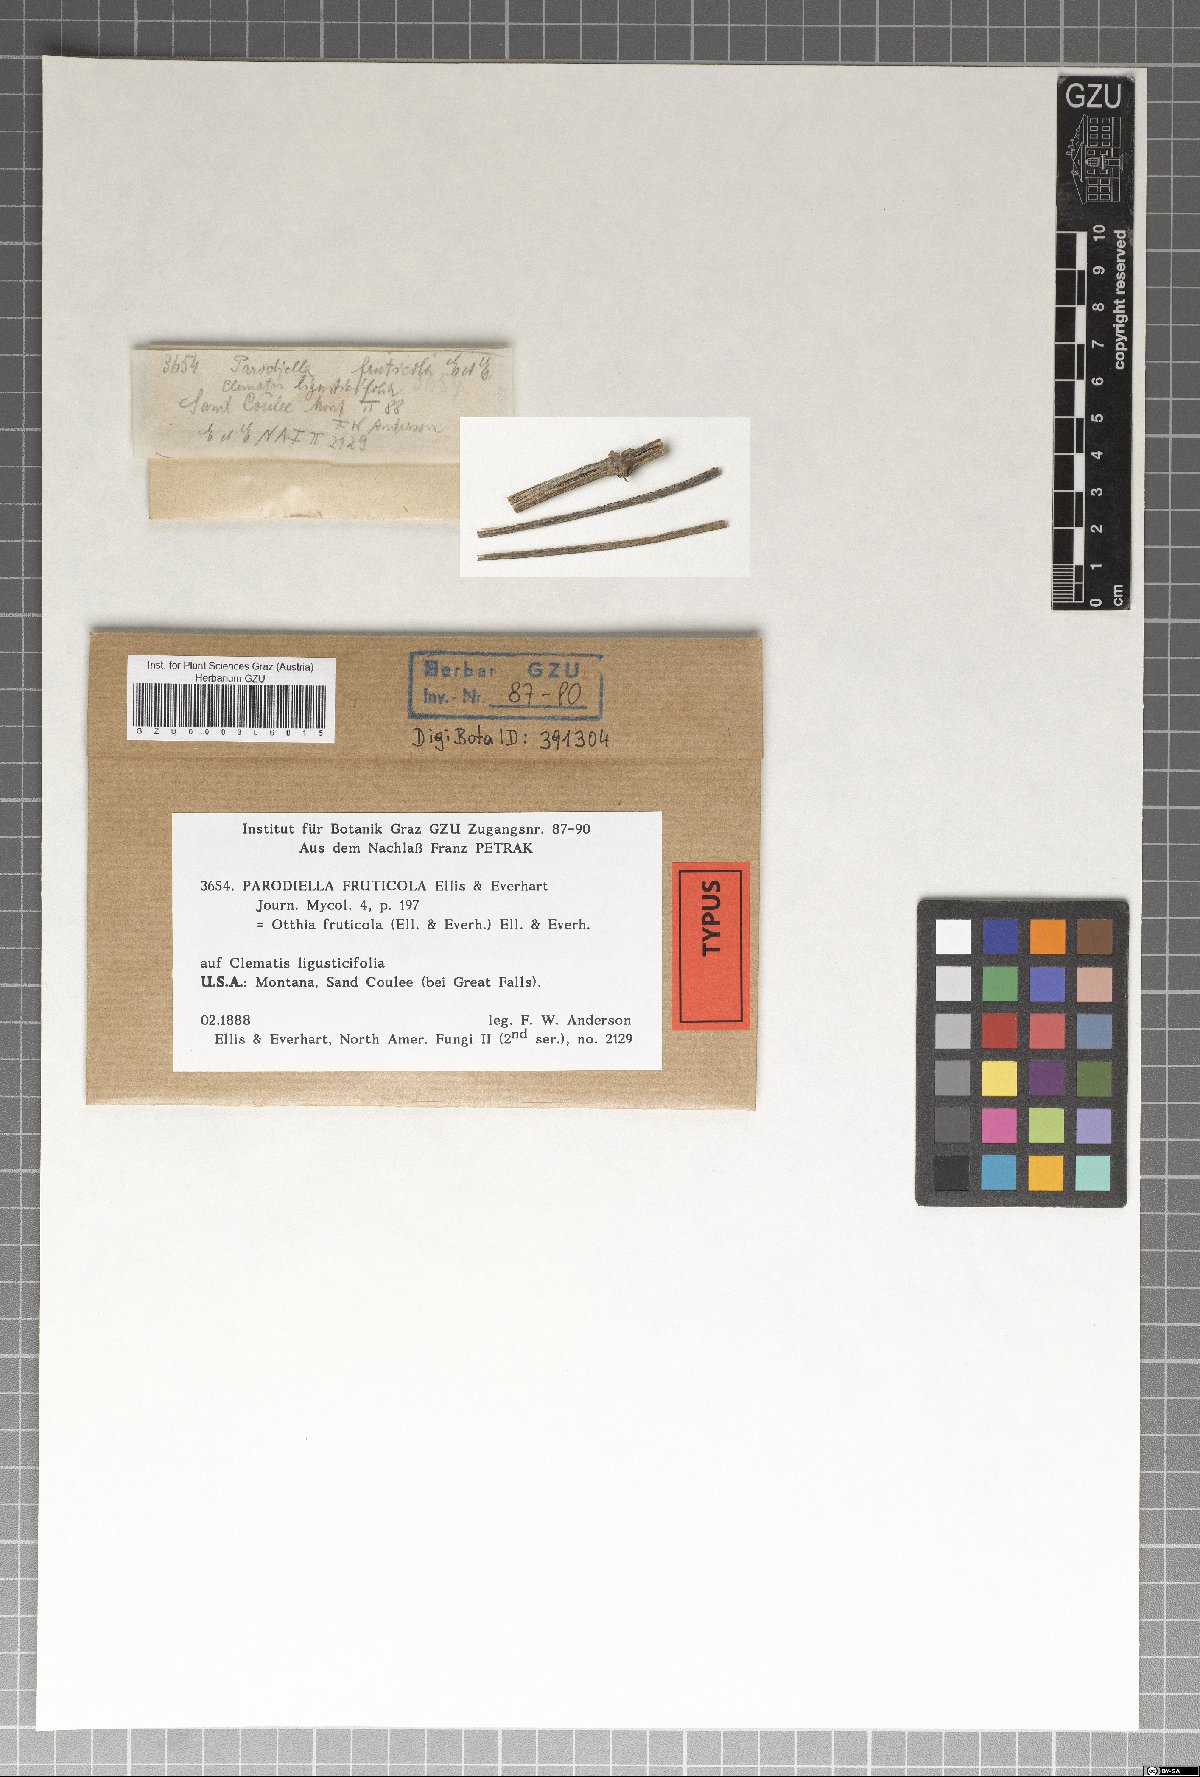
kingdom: Fungi
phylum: Ascomycota
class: Dothideomycetes
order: Pleosporales
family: Dothidotthiaceae
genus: Dothidotthia
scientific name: Dothidotthia fructicola
